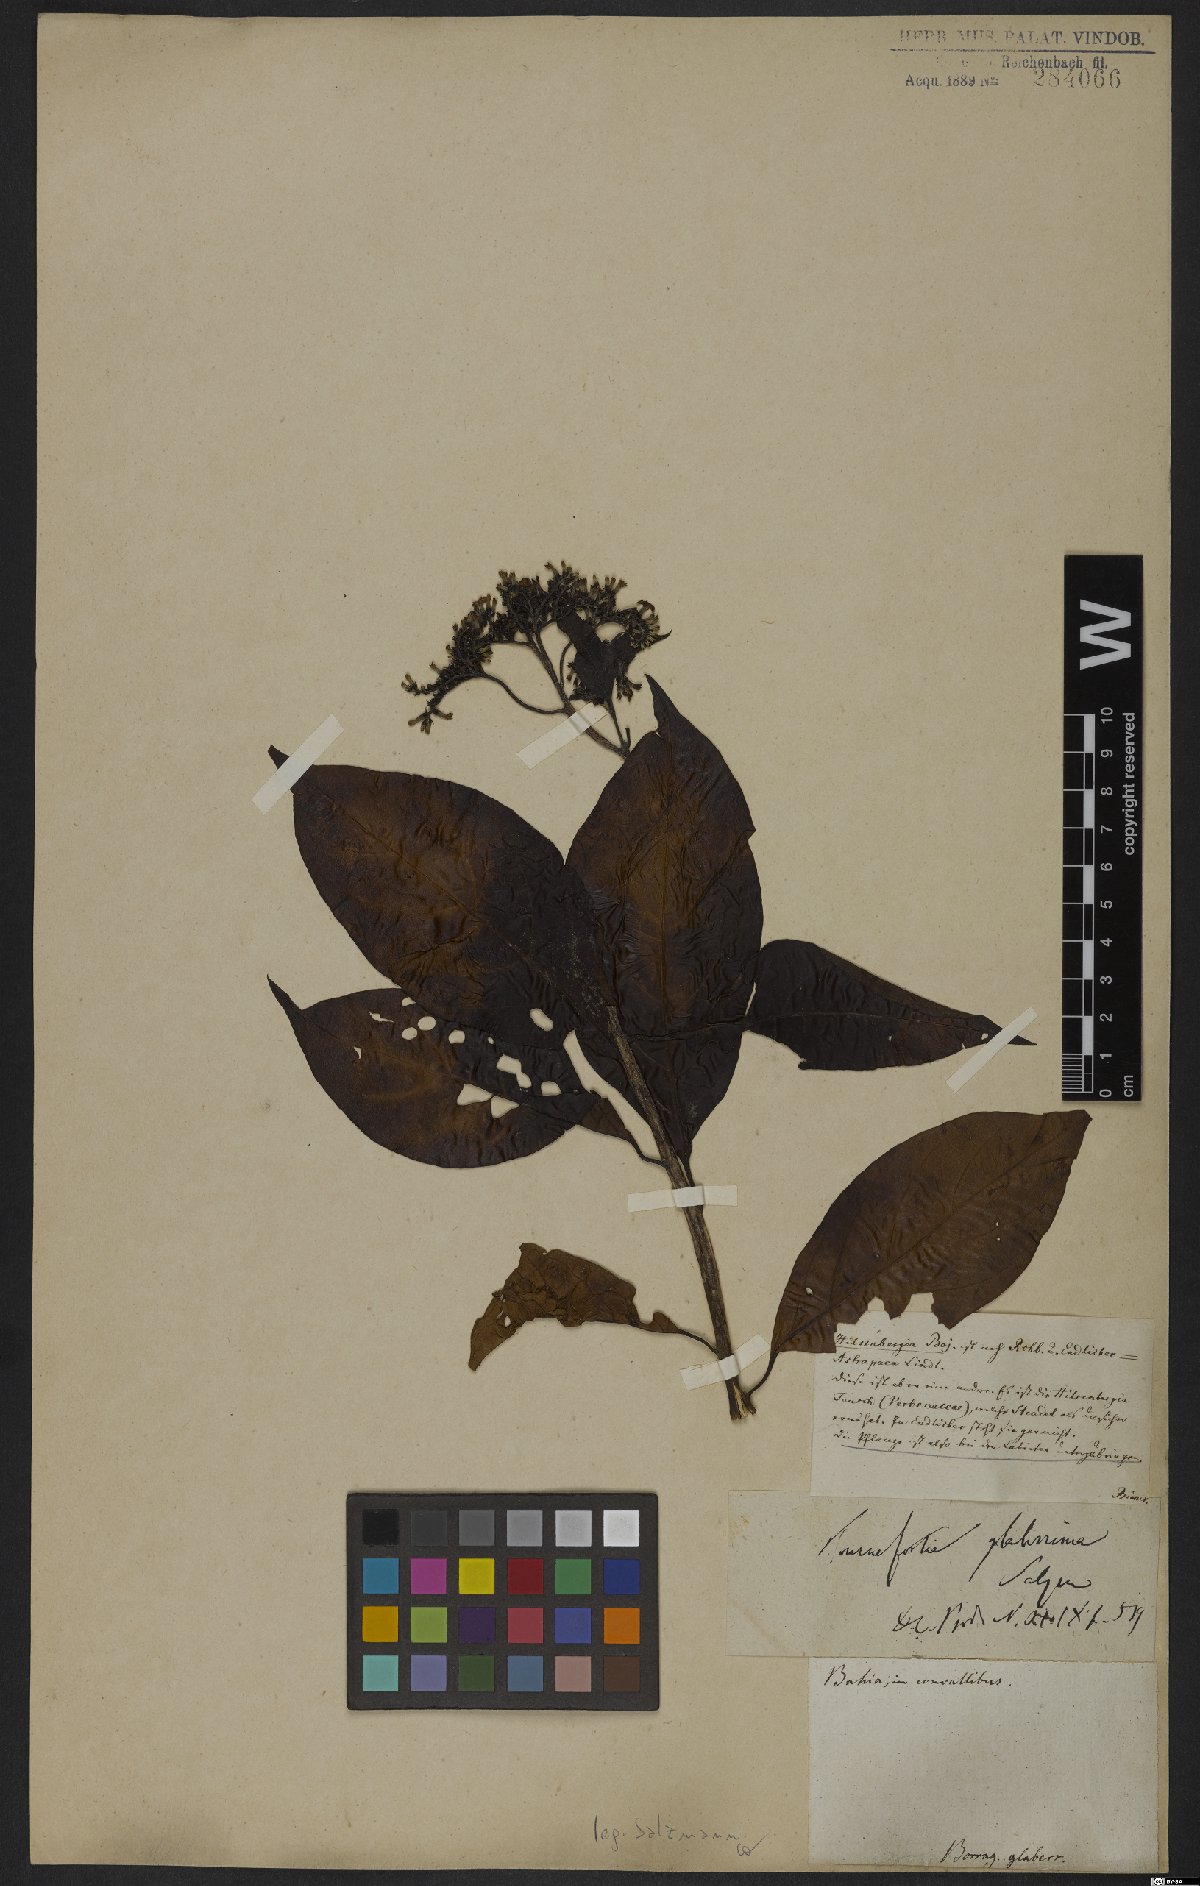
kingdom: Plantae
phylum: Tracheophyta
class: Magnoliopsida
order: Boraginales
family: Heliotropiaceae
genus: Heliotropium
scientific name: Heliotropium glabrum
